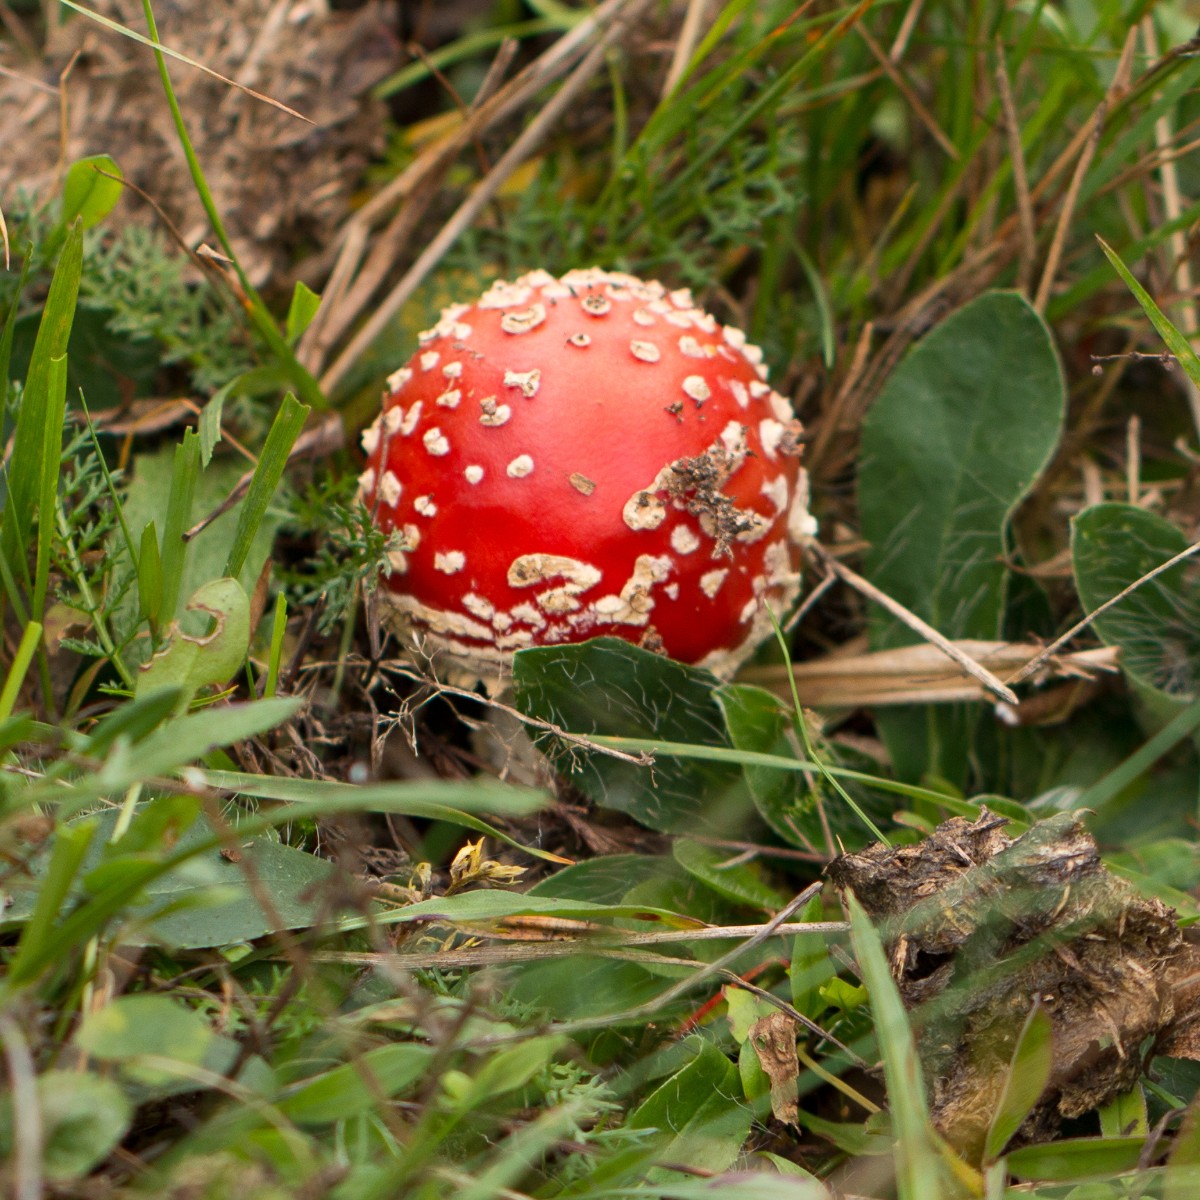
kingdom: Fungi
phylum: Basidiomycota
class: Agaricomycetes
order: Agaricales
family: Amanitaceae
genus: Amanita
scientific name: Amanita muscaria
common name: rød fluesvamp
